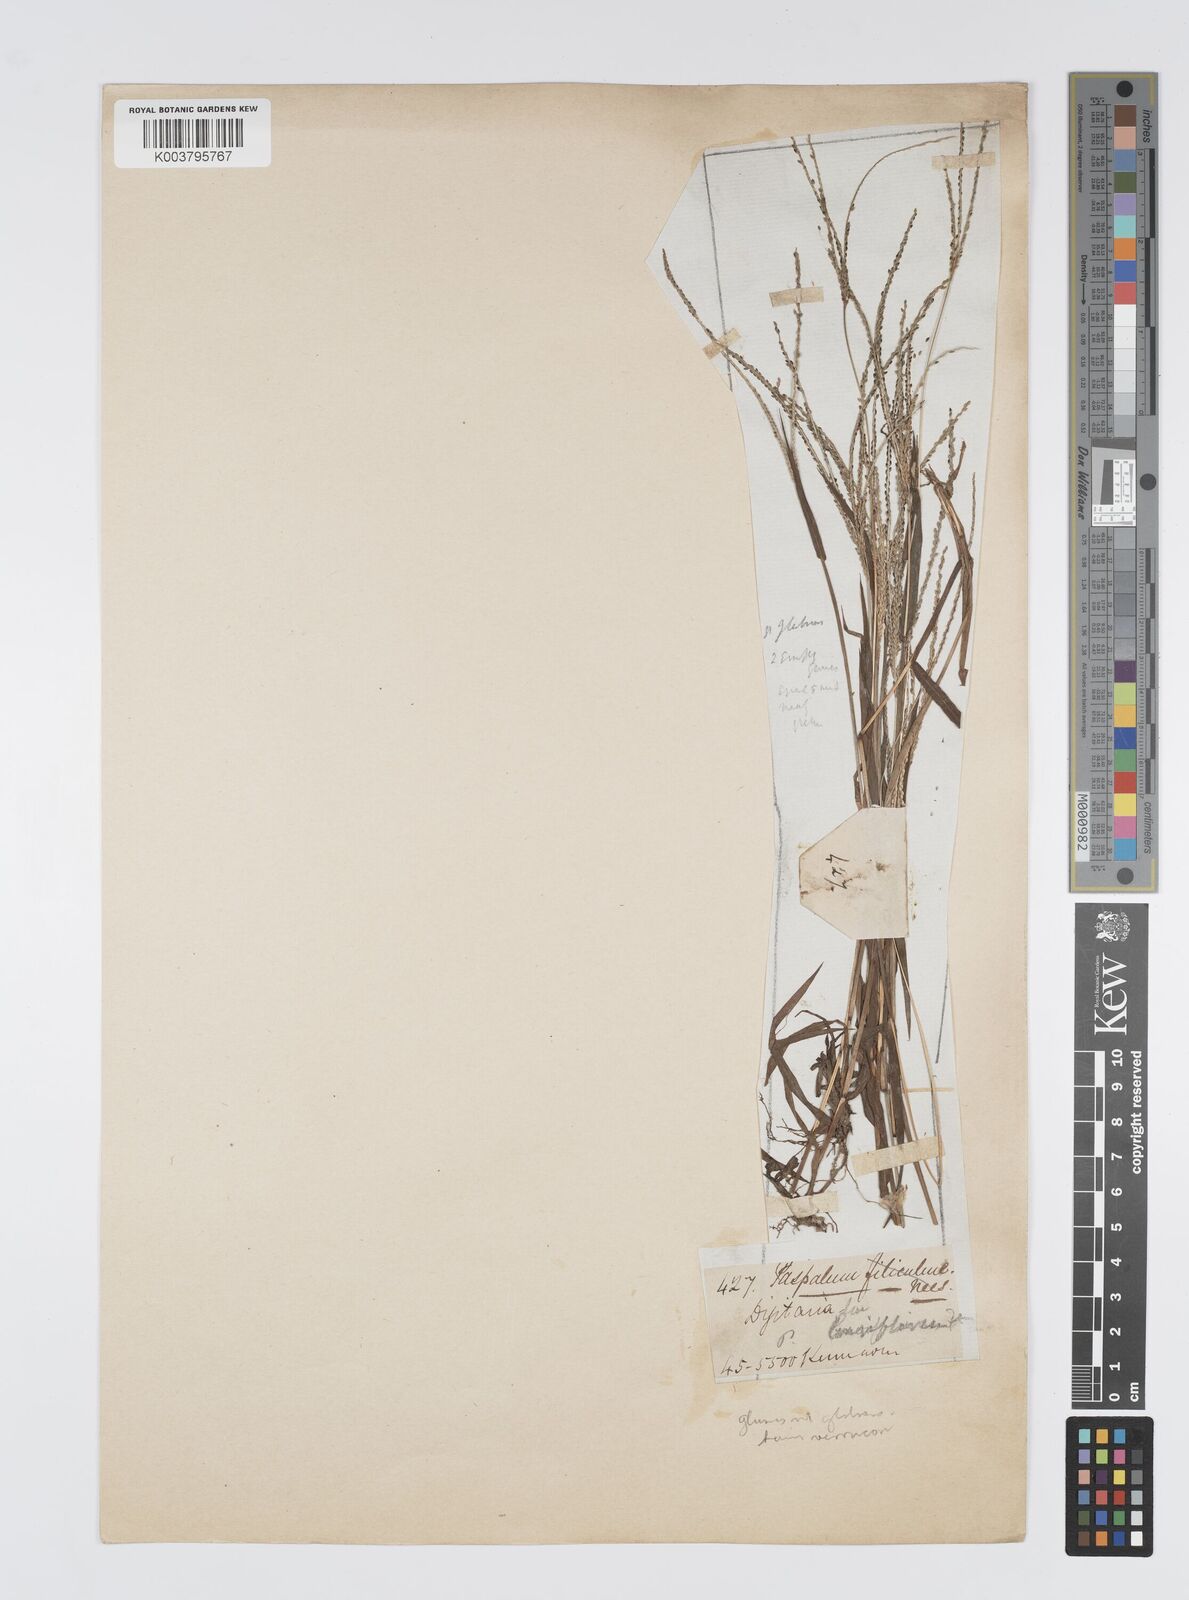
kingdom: Plantae
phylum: Tracheophyta
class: Liliopsida
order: Poales
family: Poaceae
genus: Digitaria
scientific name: Digitaria violascens
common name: Violet crabgrass
